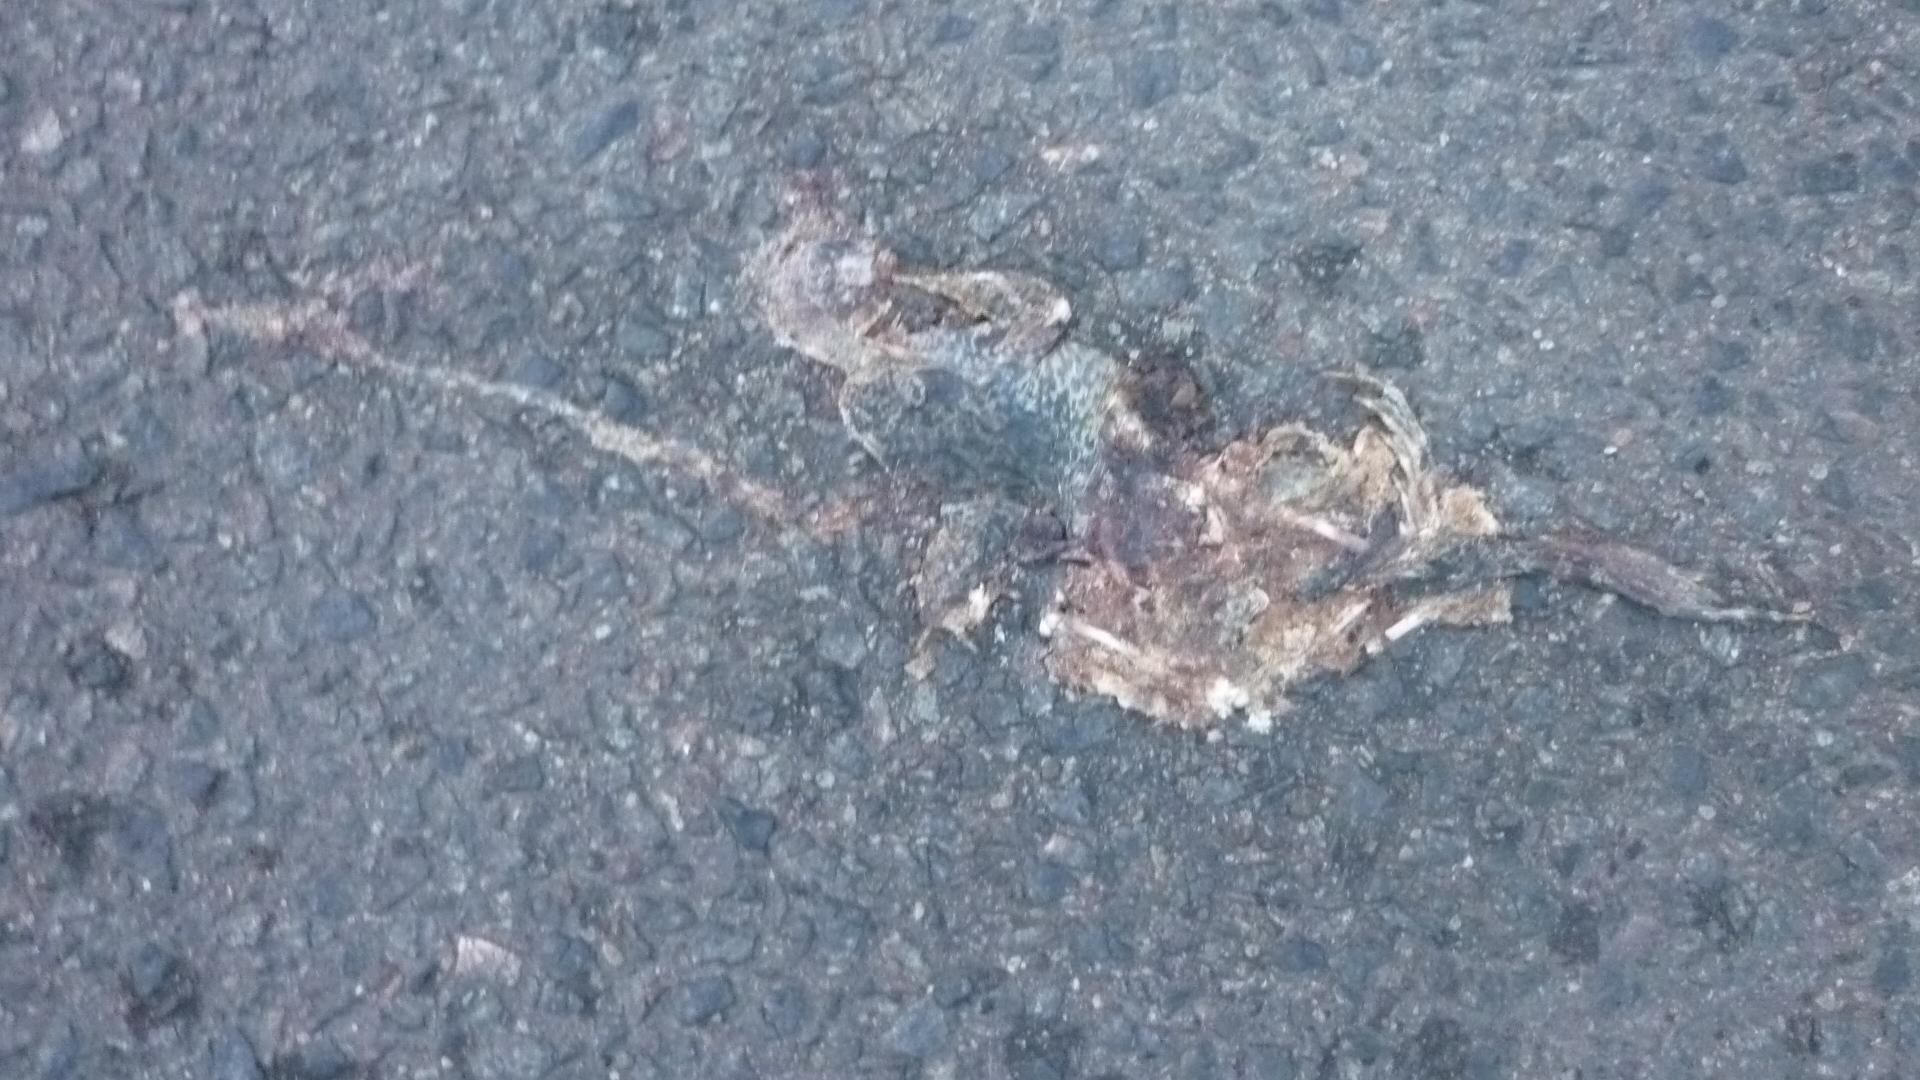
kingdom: Animalia
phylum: Chordata
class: Amphibia
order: Anura
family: Bufonidae
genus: Bufo
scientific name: Bufo bufo
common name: Common toad
